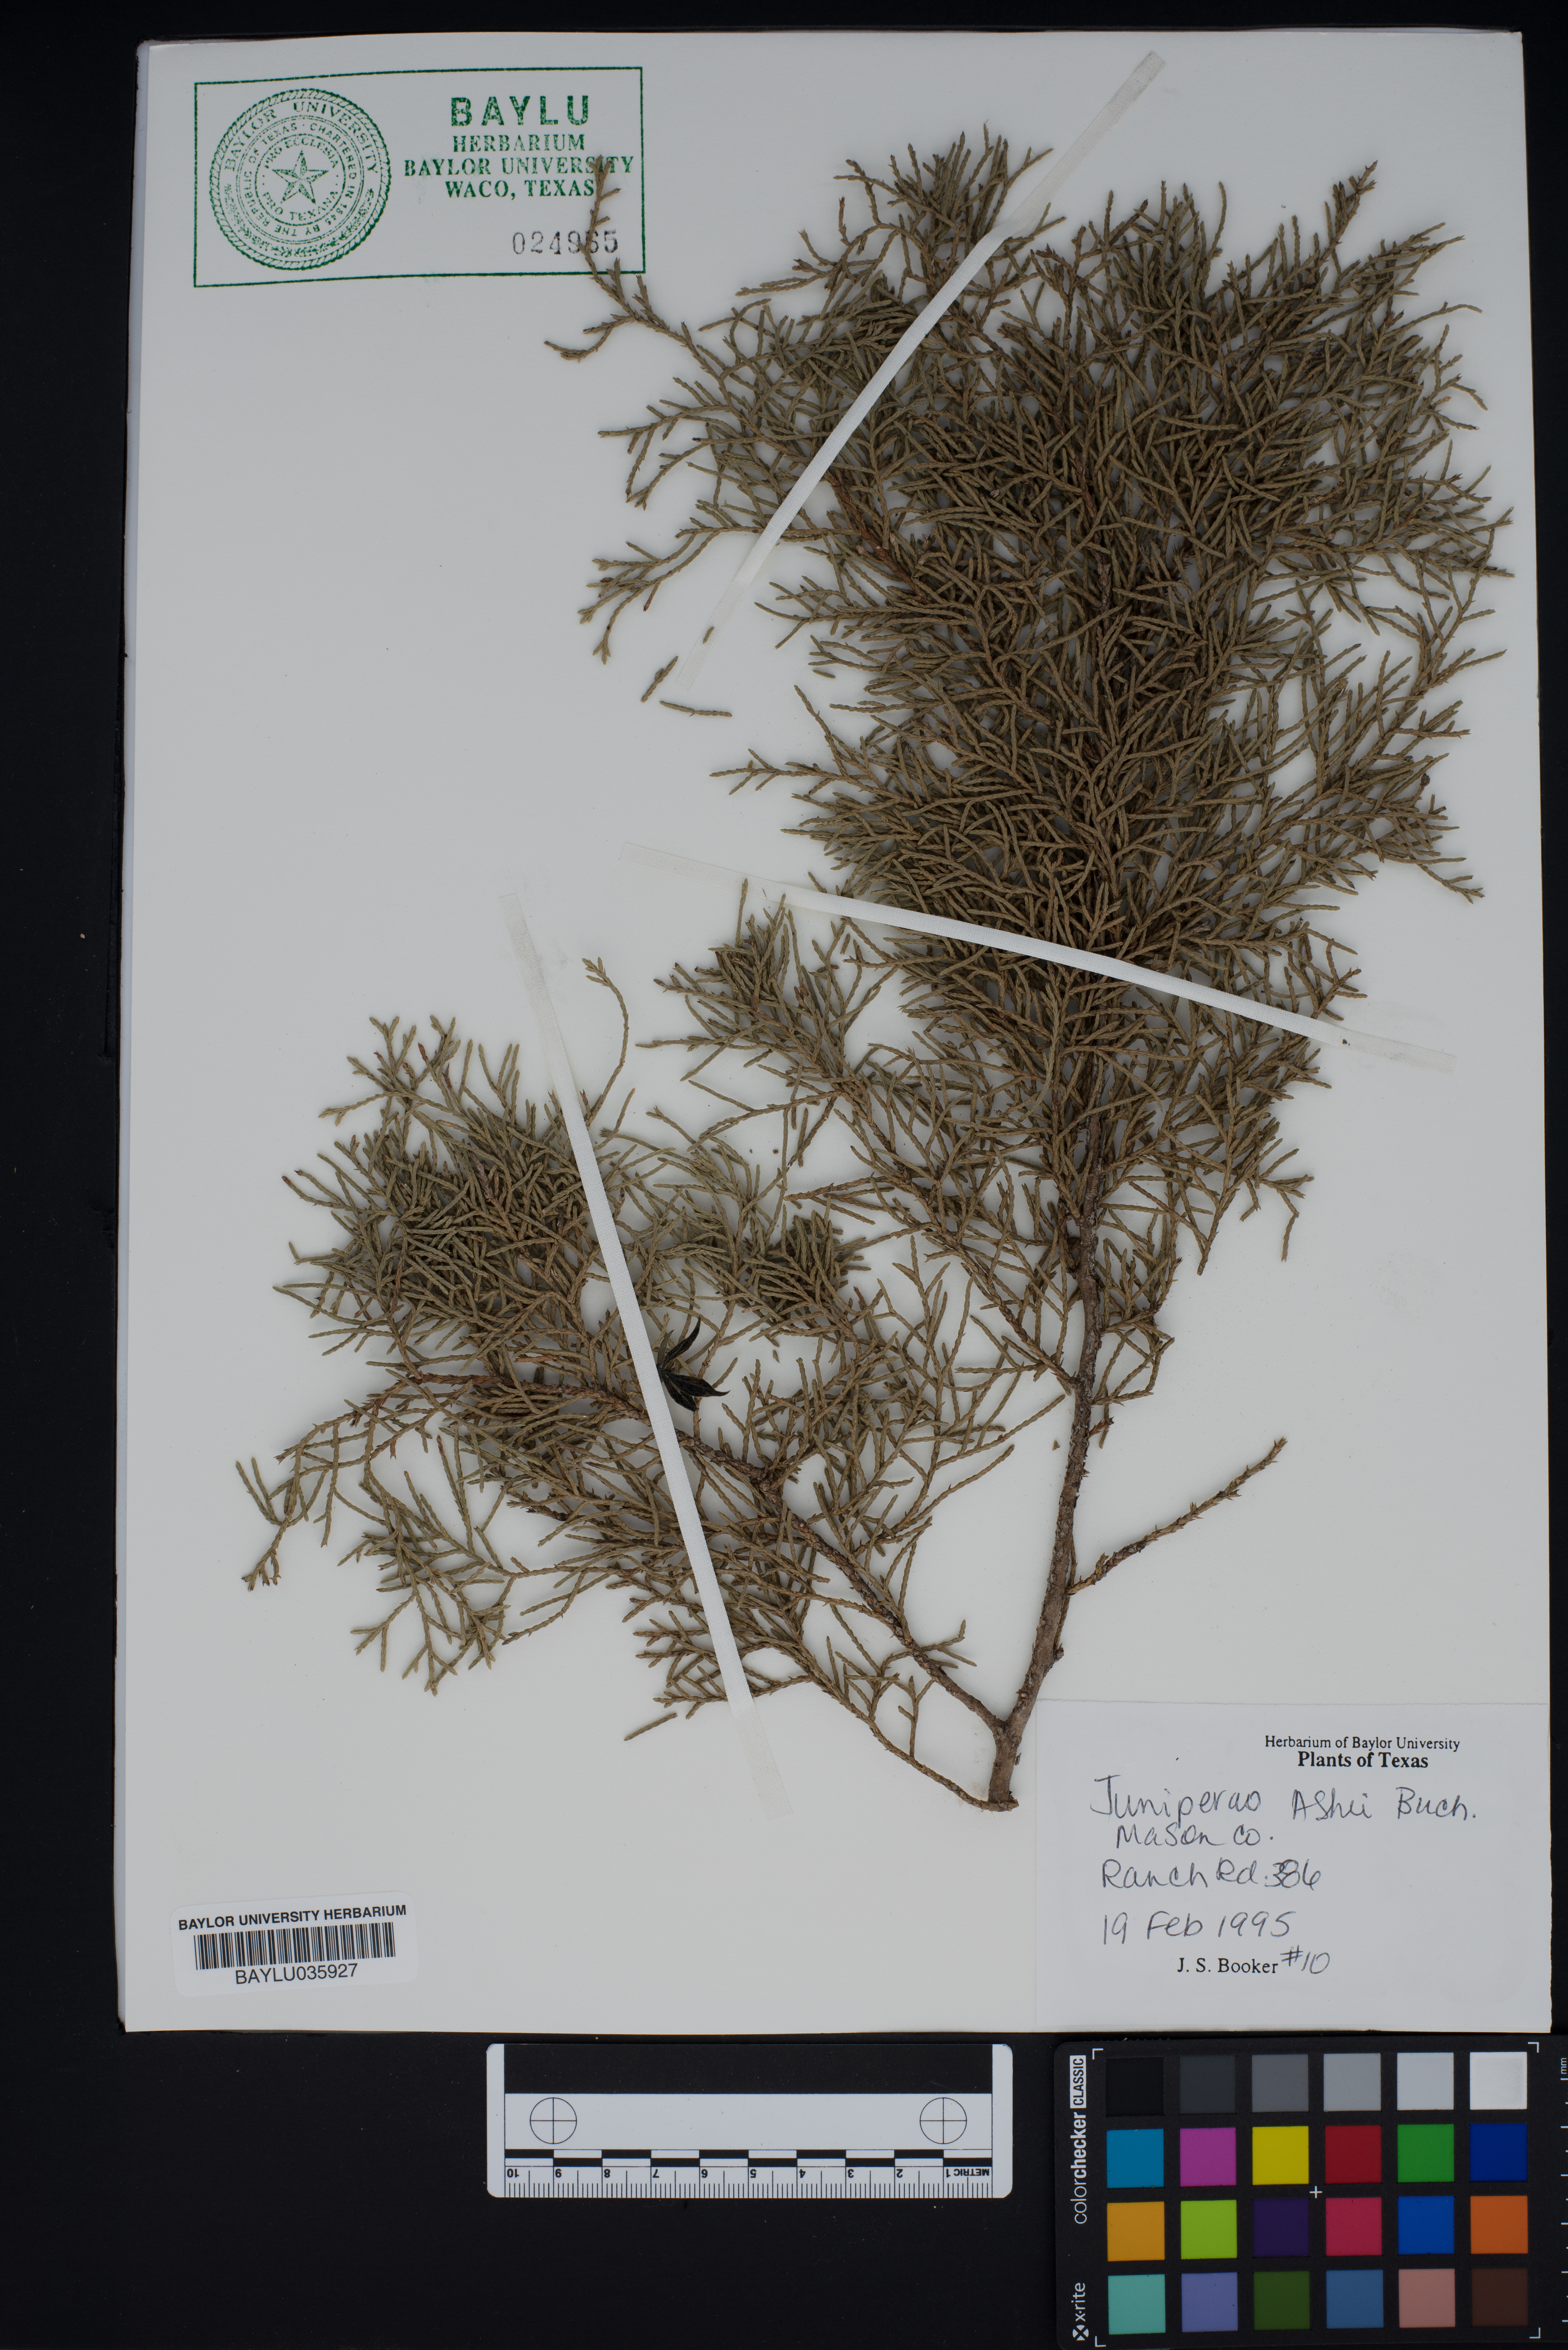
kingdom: Plantae
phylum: Tracheophyta
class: Pinopsida
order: Pinales
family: Cupressaceae
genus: Juniperus
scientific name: Juniperus ashei
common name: Mexican juniper
